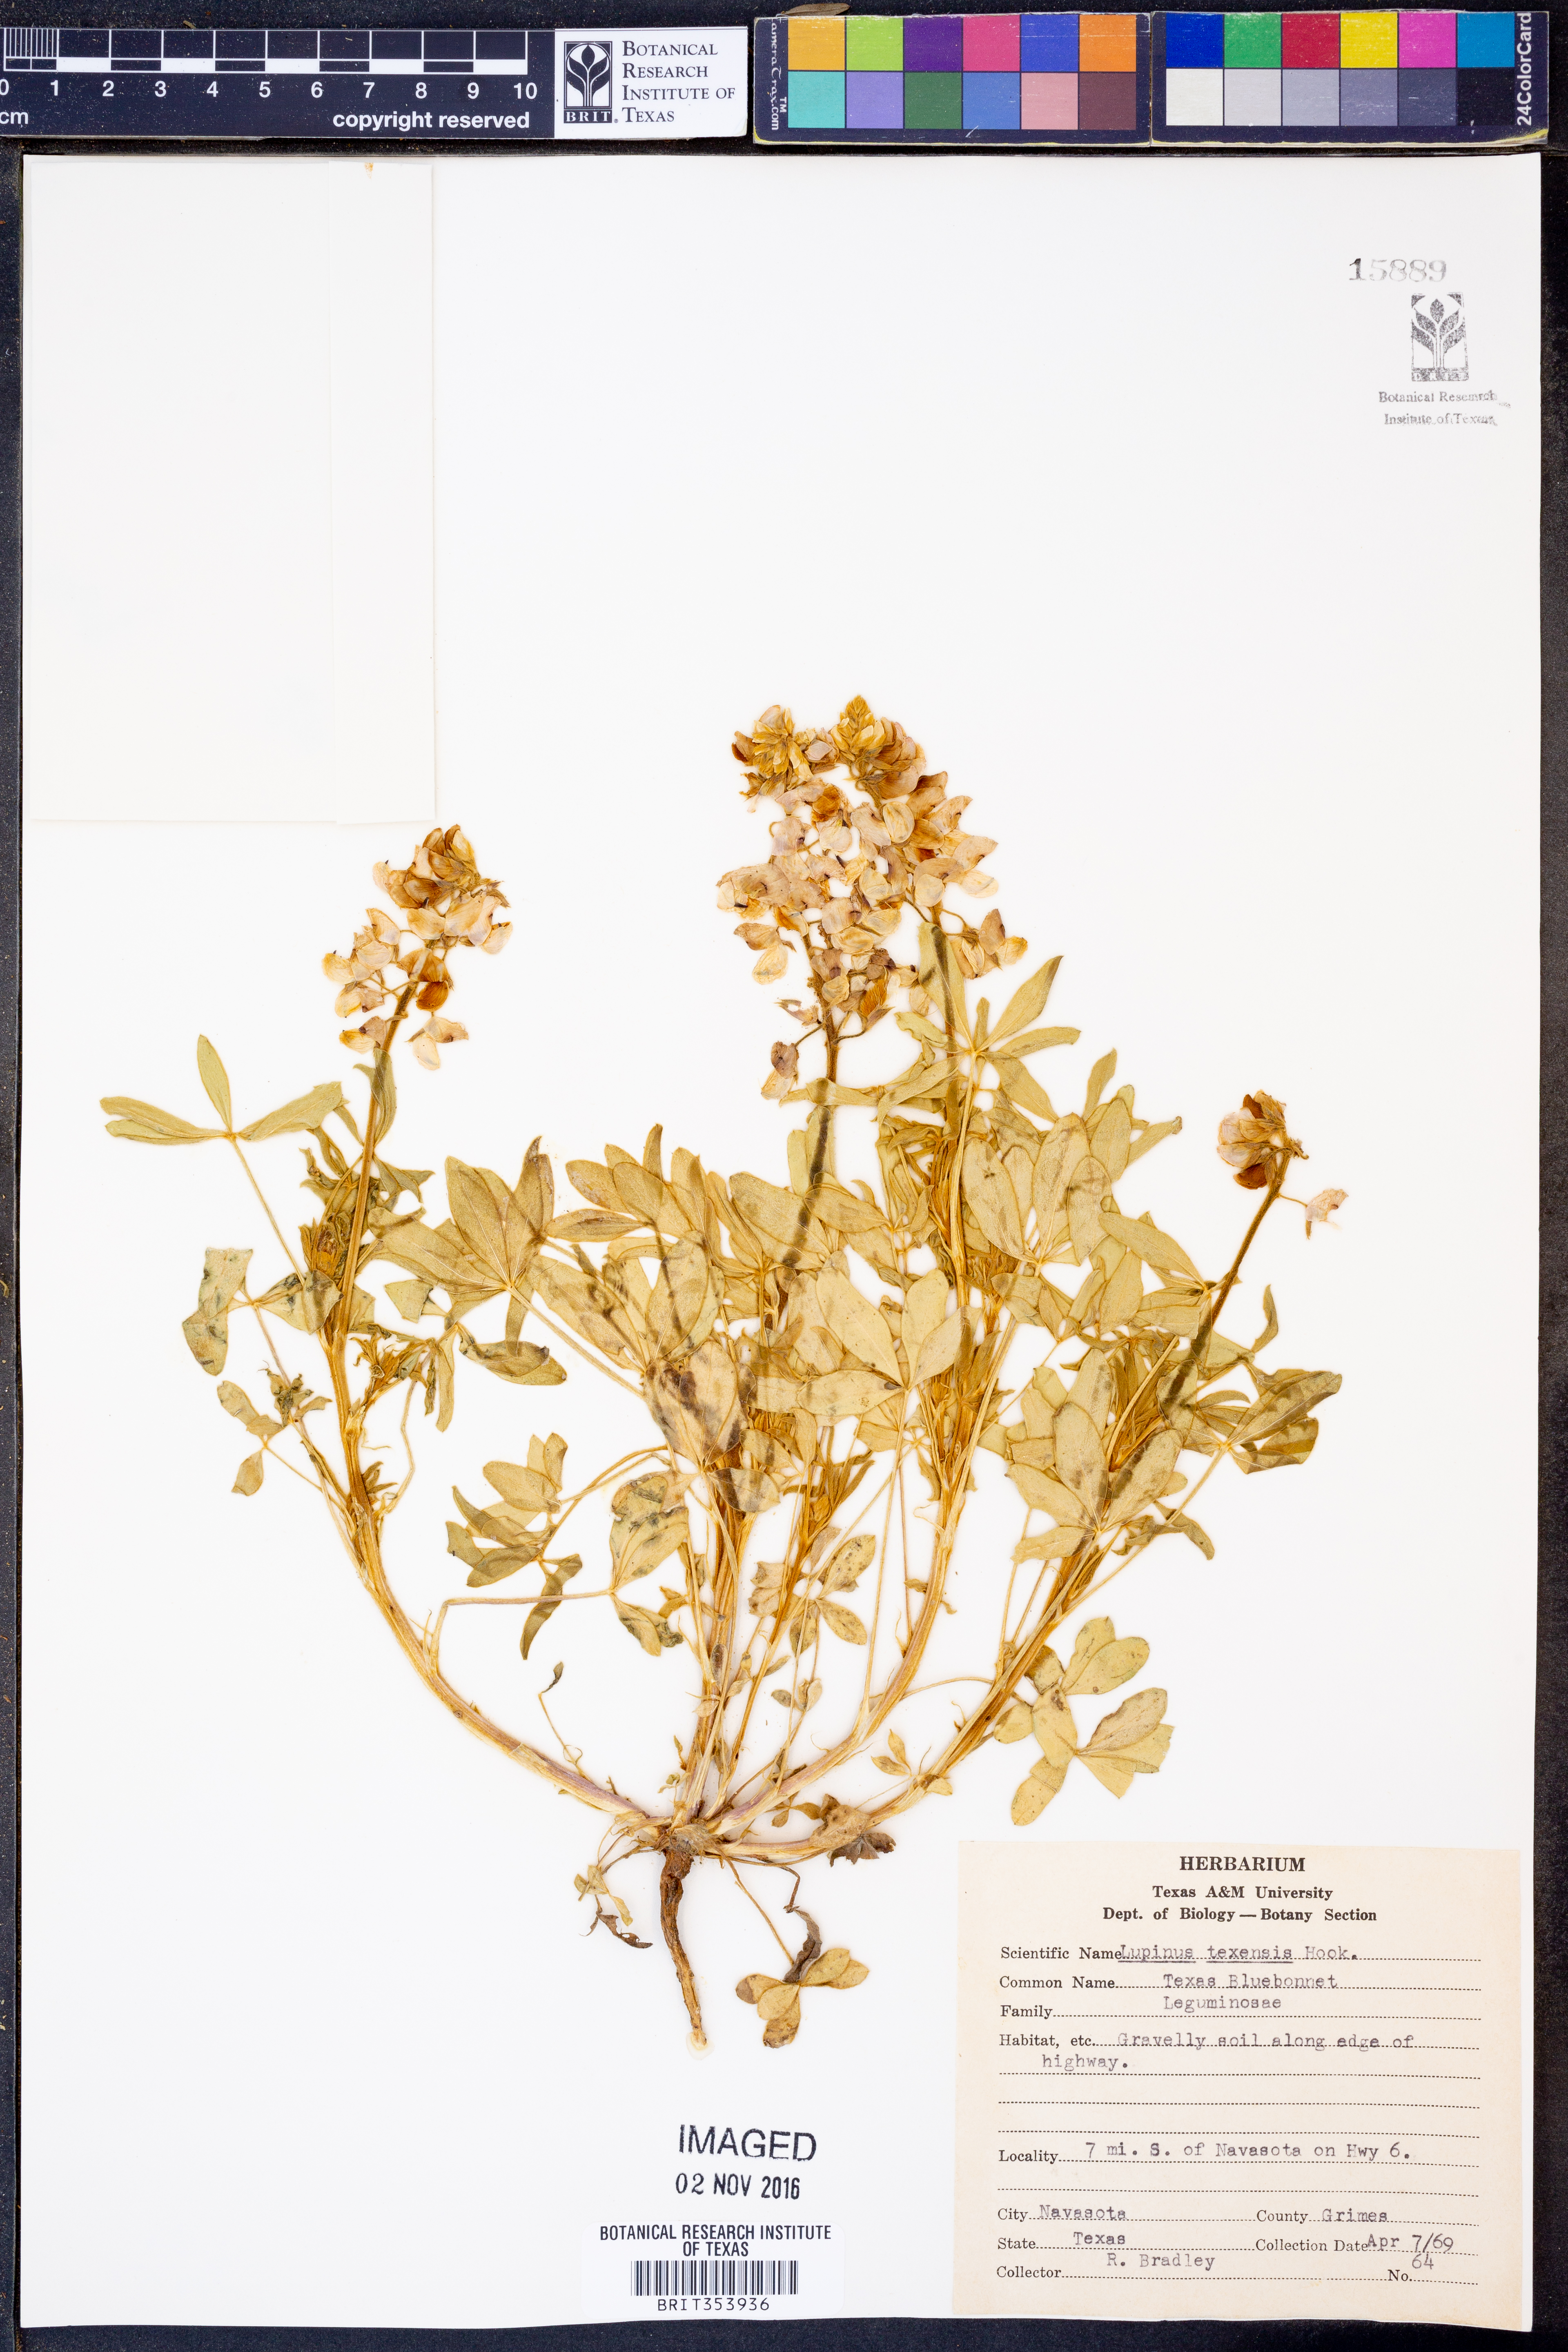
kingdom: Plantae
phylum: Tracheophyta
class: Magnoliopsida
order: Fabales
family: Fabaceae
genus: Lupinus
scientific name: Lupinus texensis
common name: Texas bluebonnet
